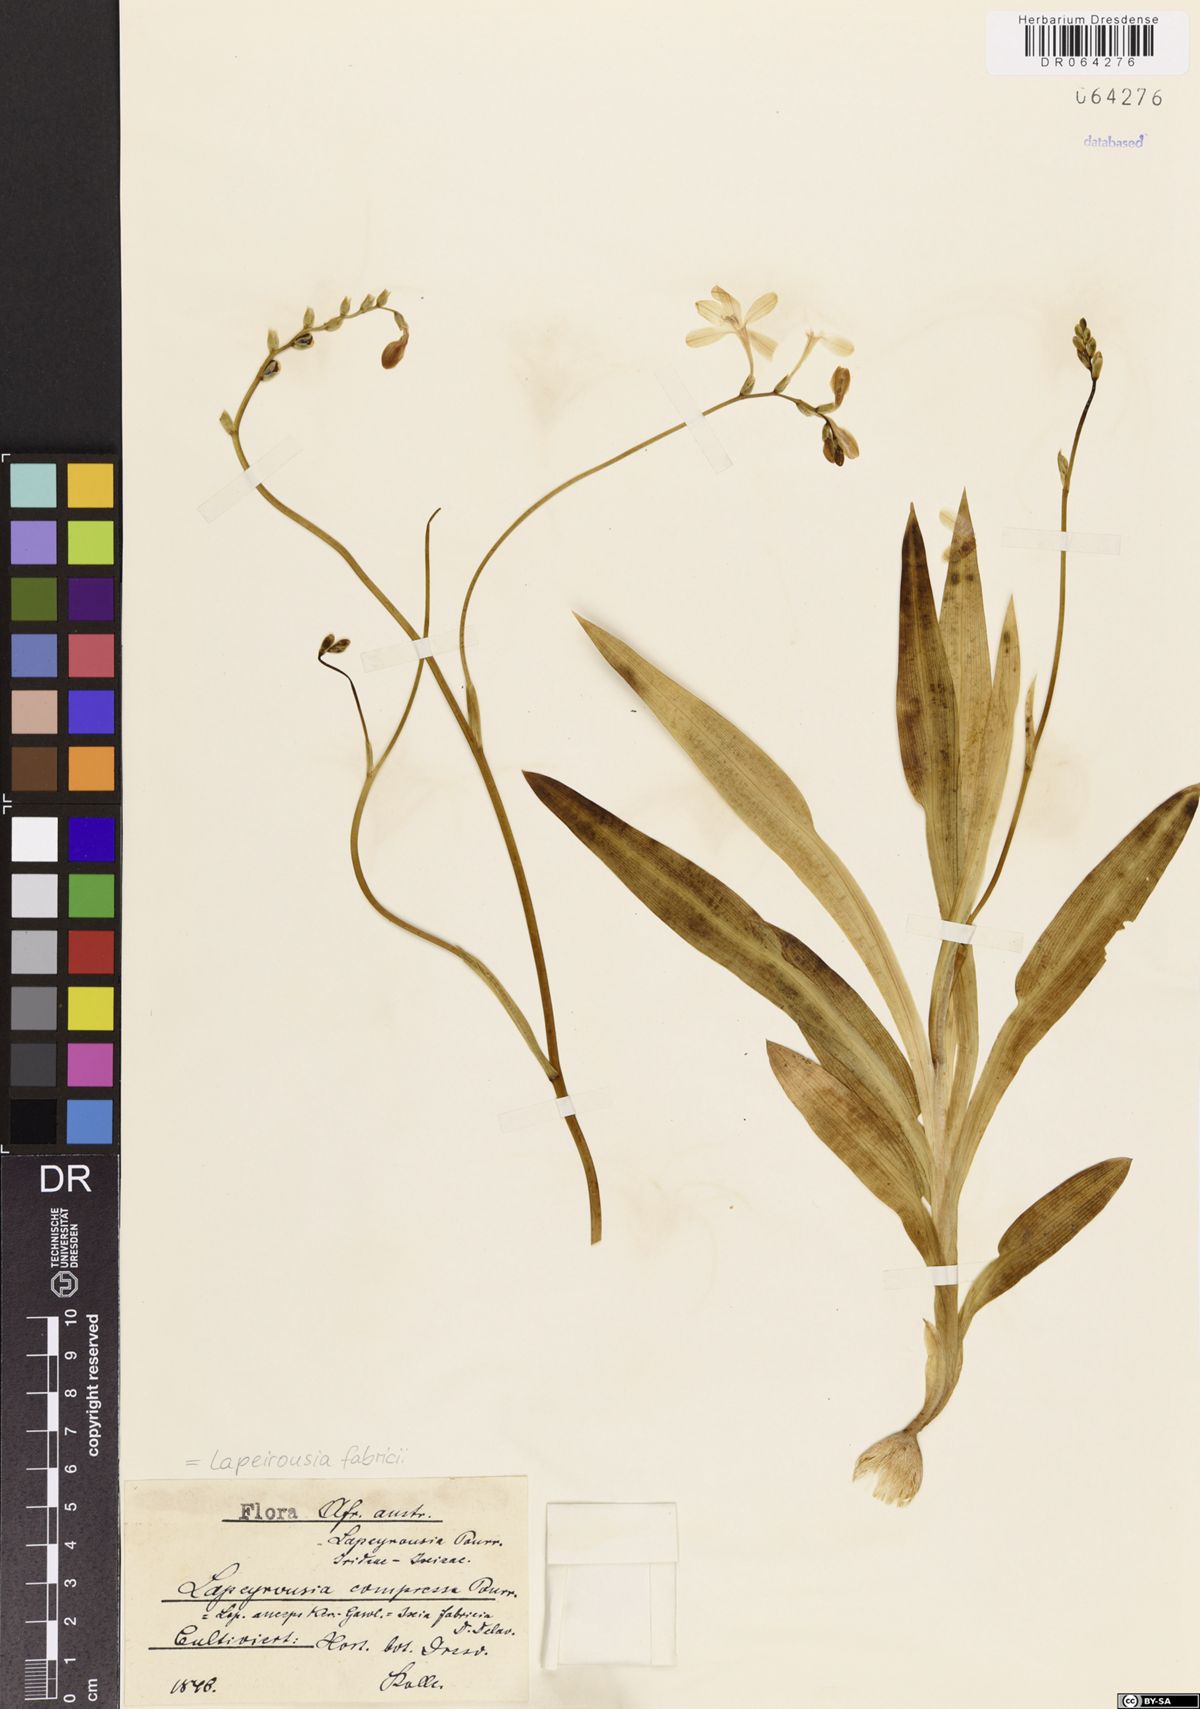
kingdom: Plantae
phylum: Tracheophyta
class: Liliopsida
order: Asparagales
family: Iridaceae
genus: Lapeirousia
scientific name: Lapeirousia fabricii
